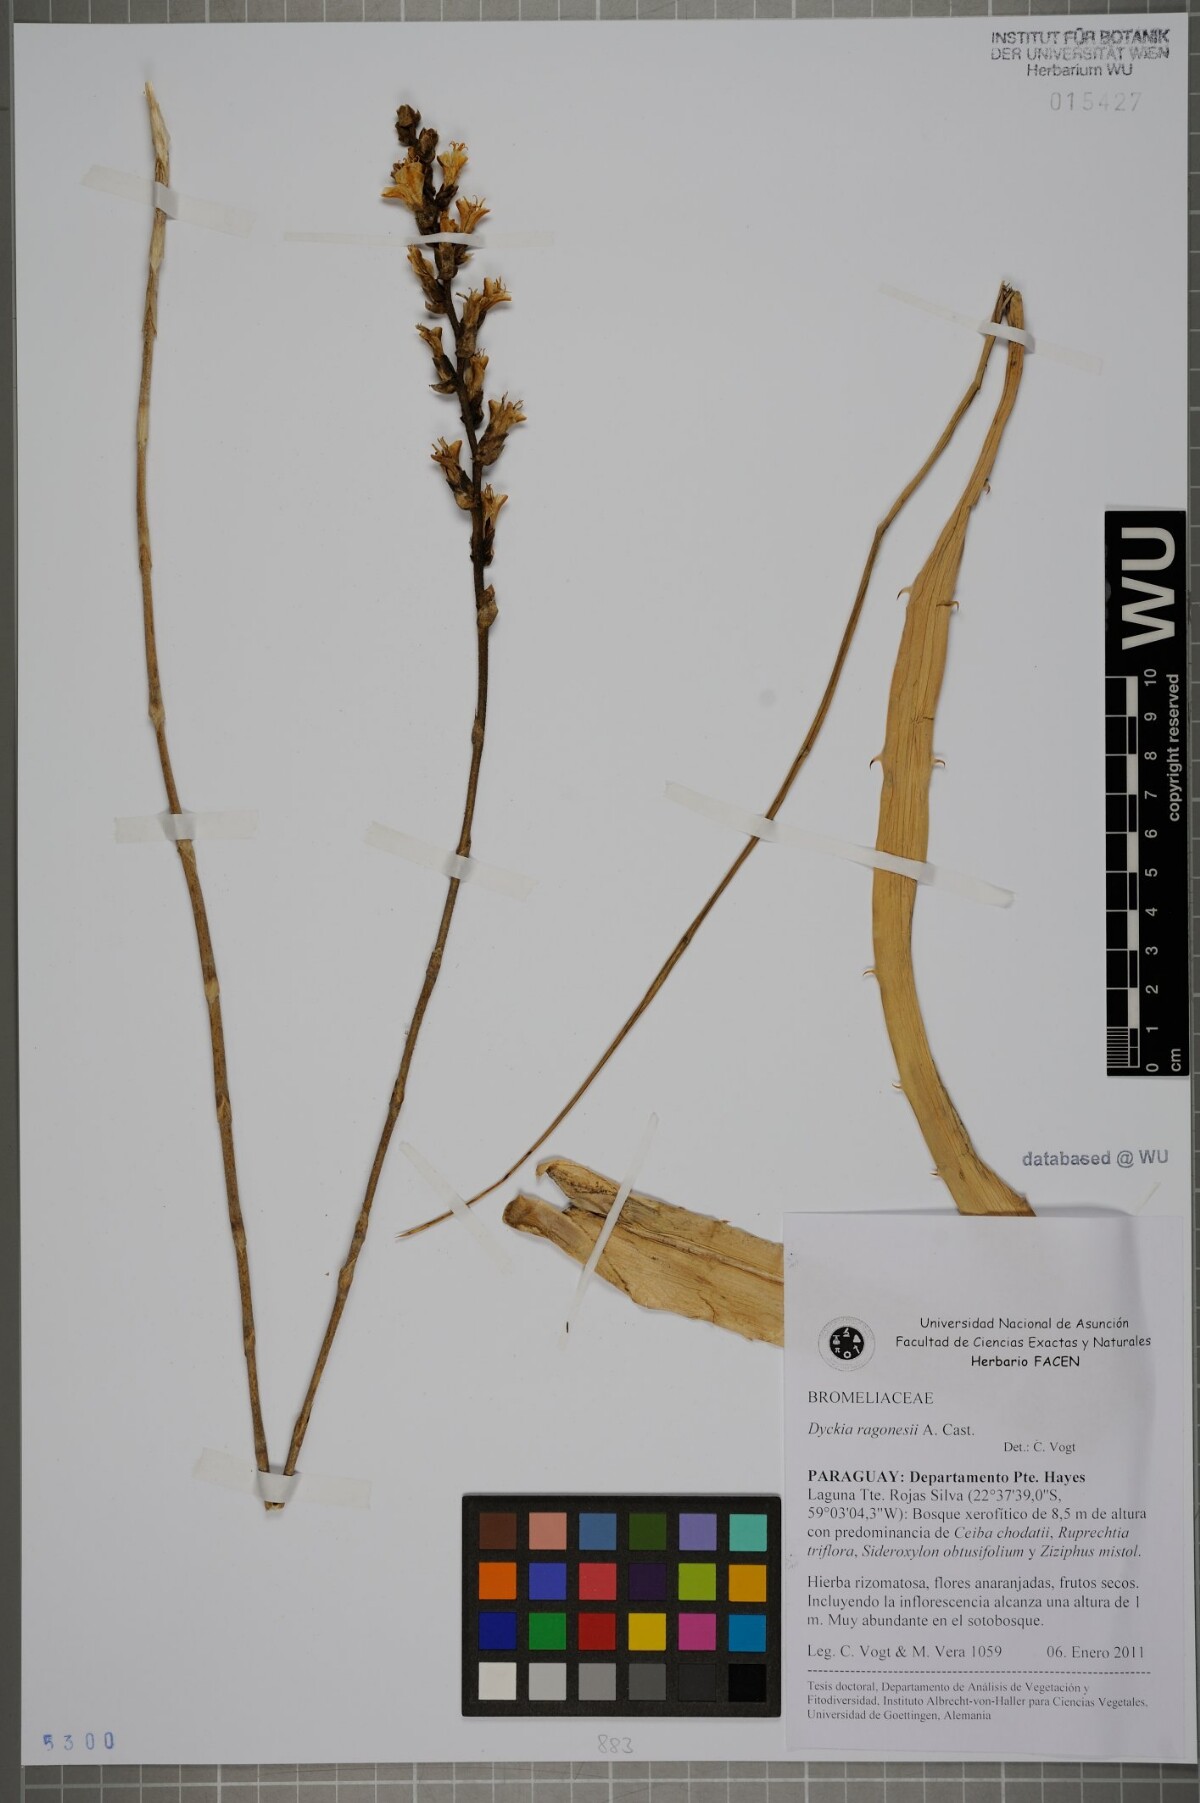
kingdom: Plantae
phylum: Tracheophyta
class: Liliopsida
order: Poales
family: Bromeliaceae
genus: Dyckia
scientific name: Dyckia ragonesei
